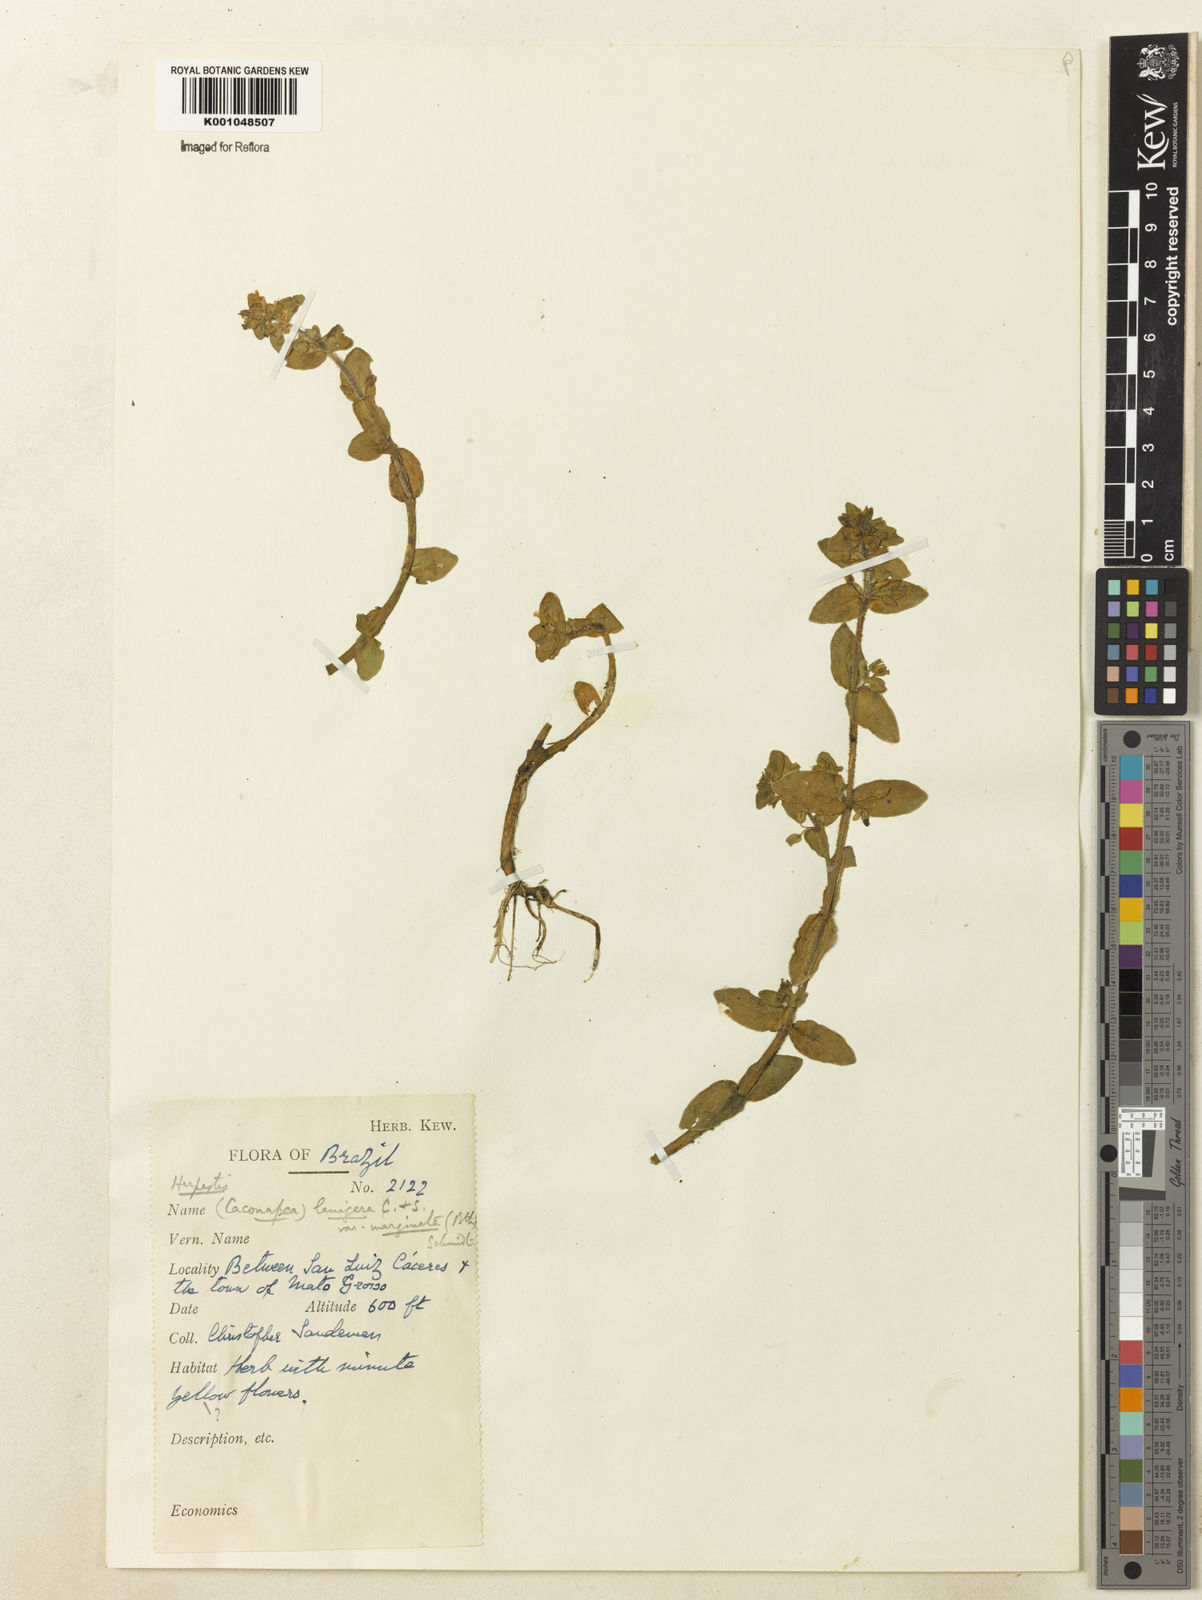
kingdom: Plantae
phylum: Tracheophyta
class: Magnoliopsida
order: Lamiales
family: Plantaginaceae
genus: Bacopa
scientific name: Bacopa lanigera
